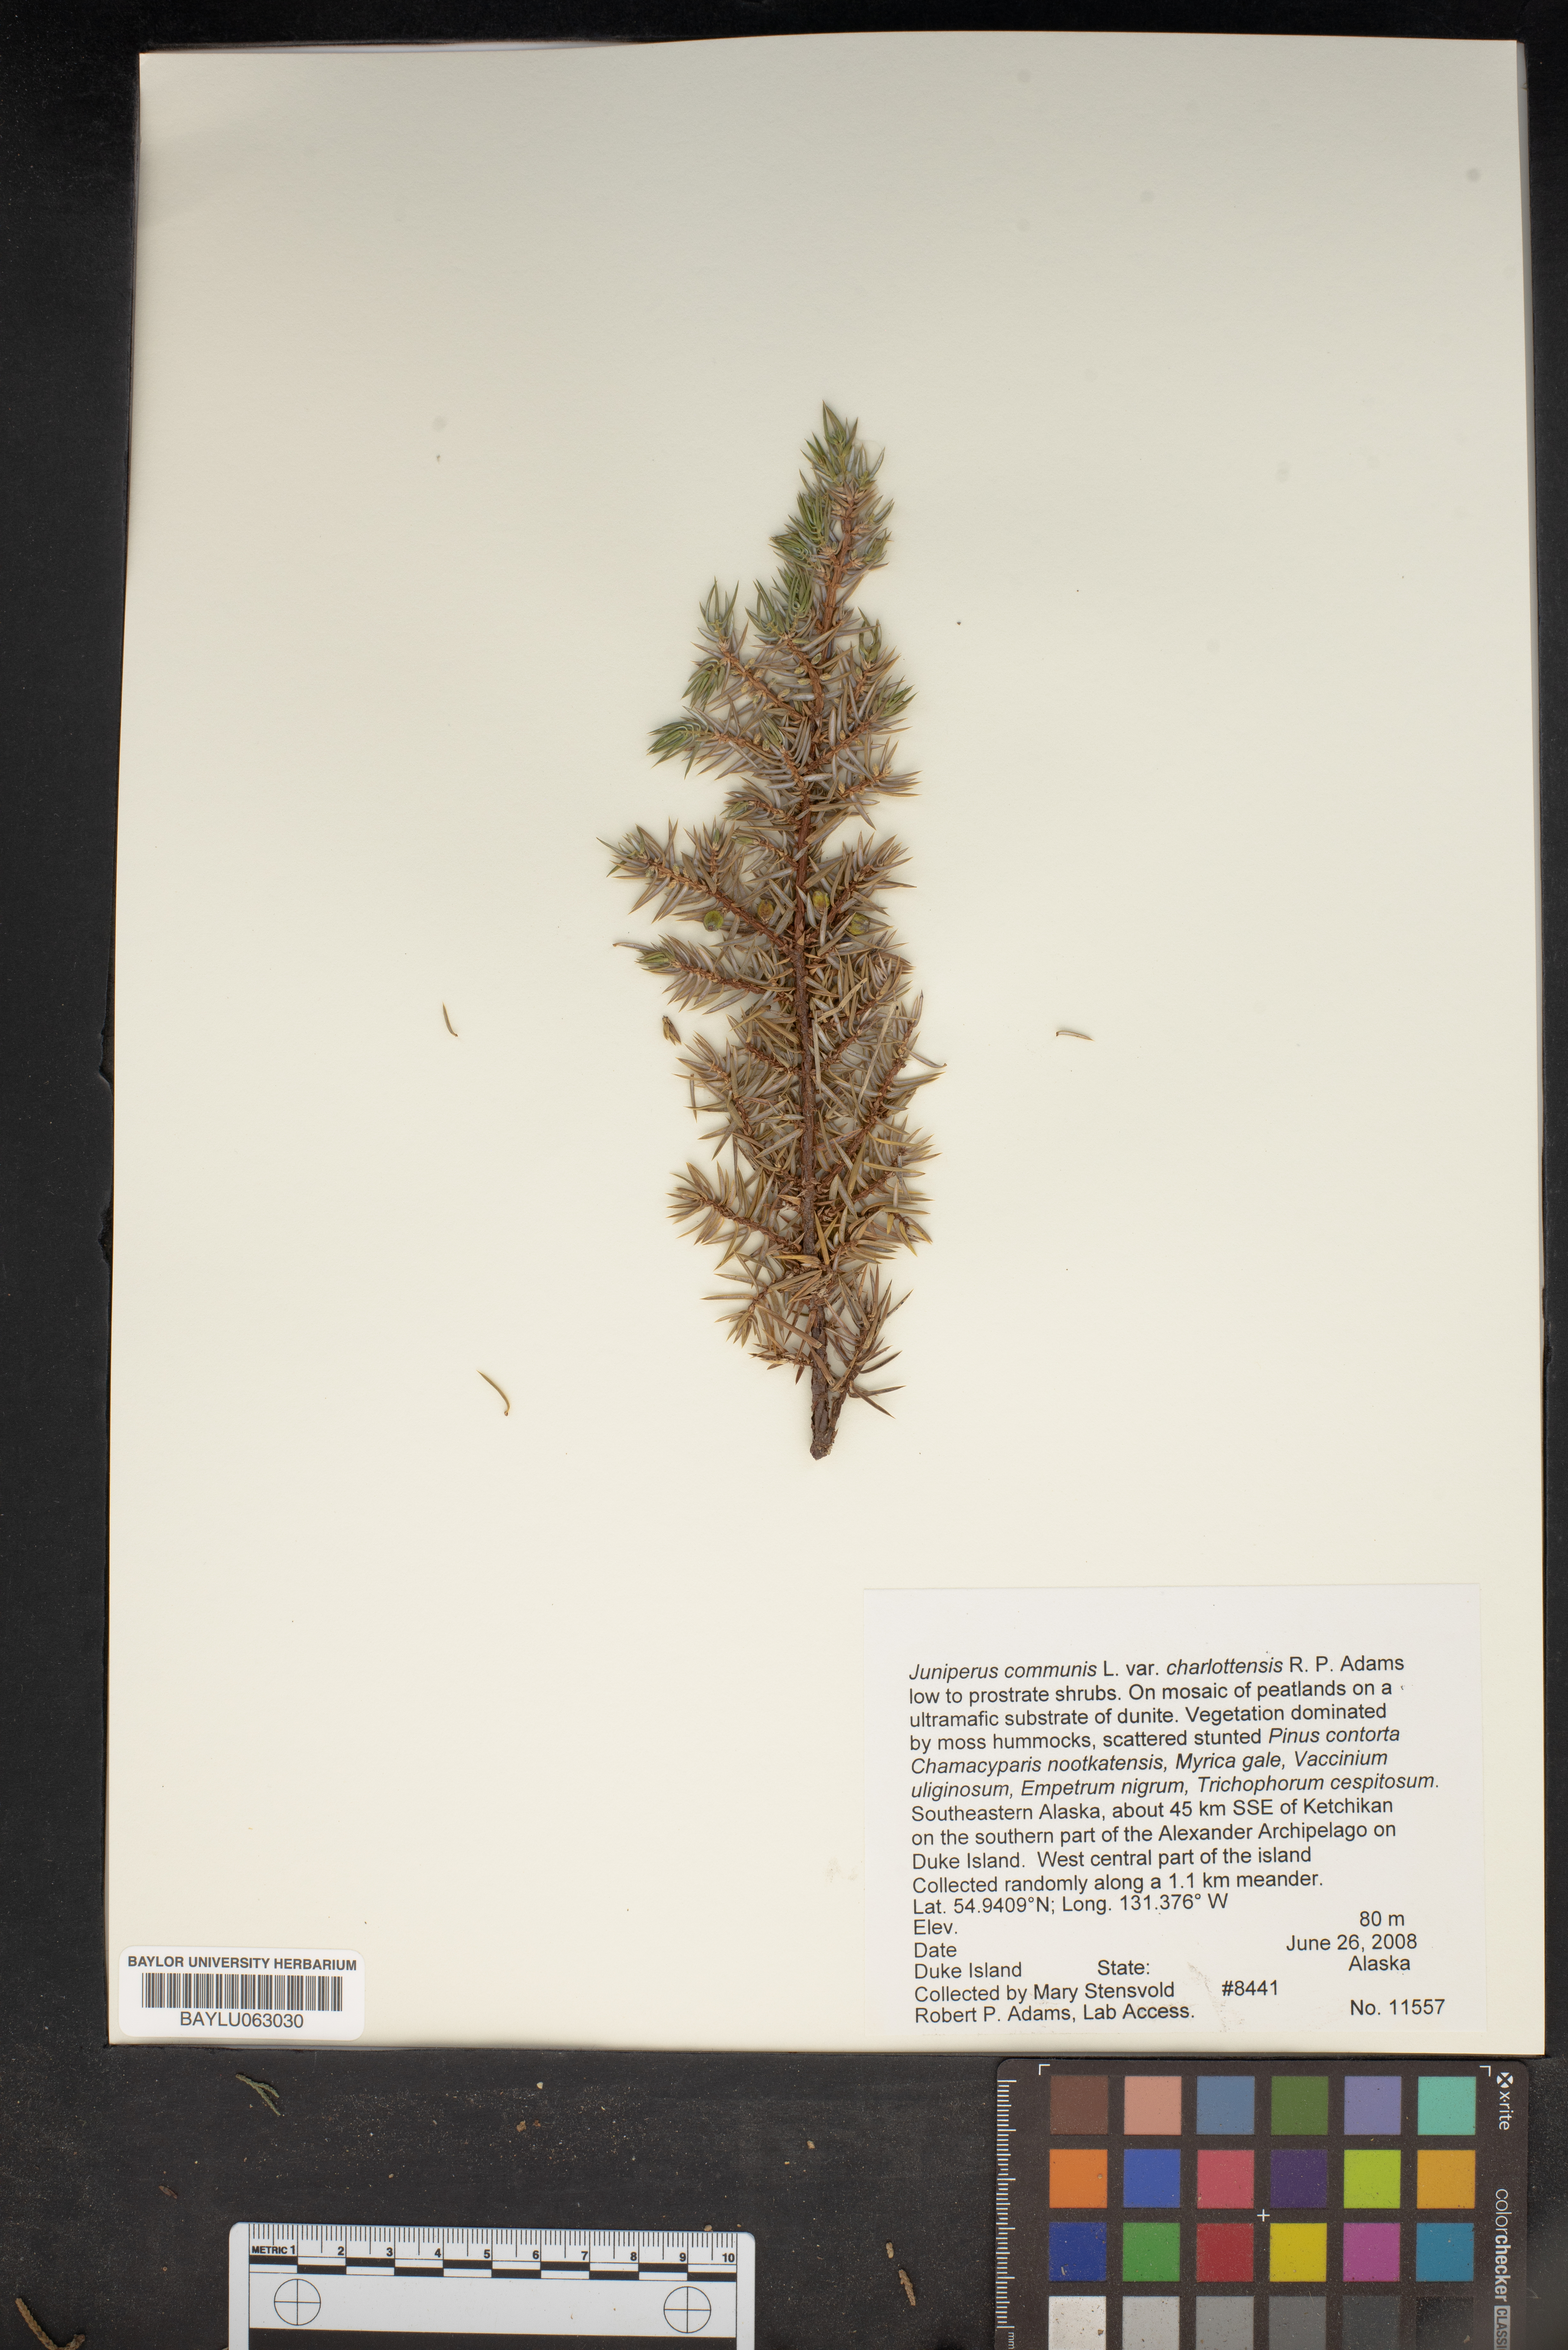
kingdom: Plantae
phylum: Tracheophyta
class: Pinopsida
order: Pinales
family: Cupressaceae
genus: Juniperus
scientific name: Juniperus communis
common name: Common juniper
